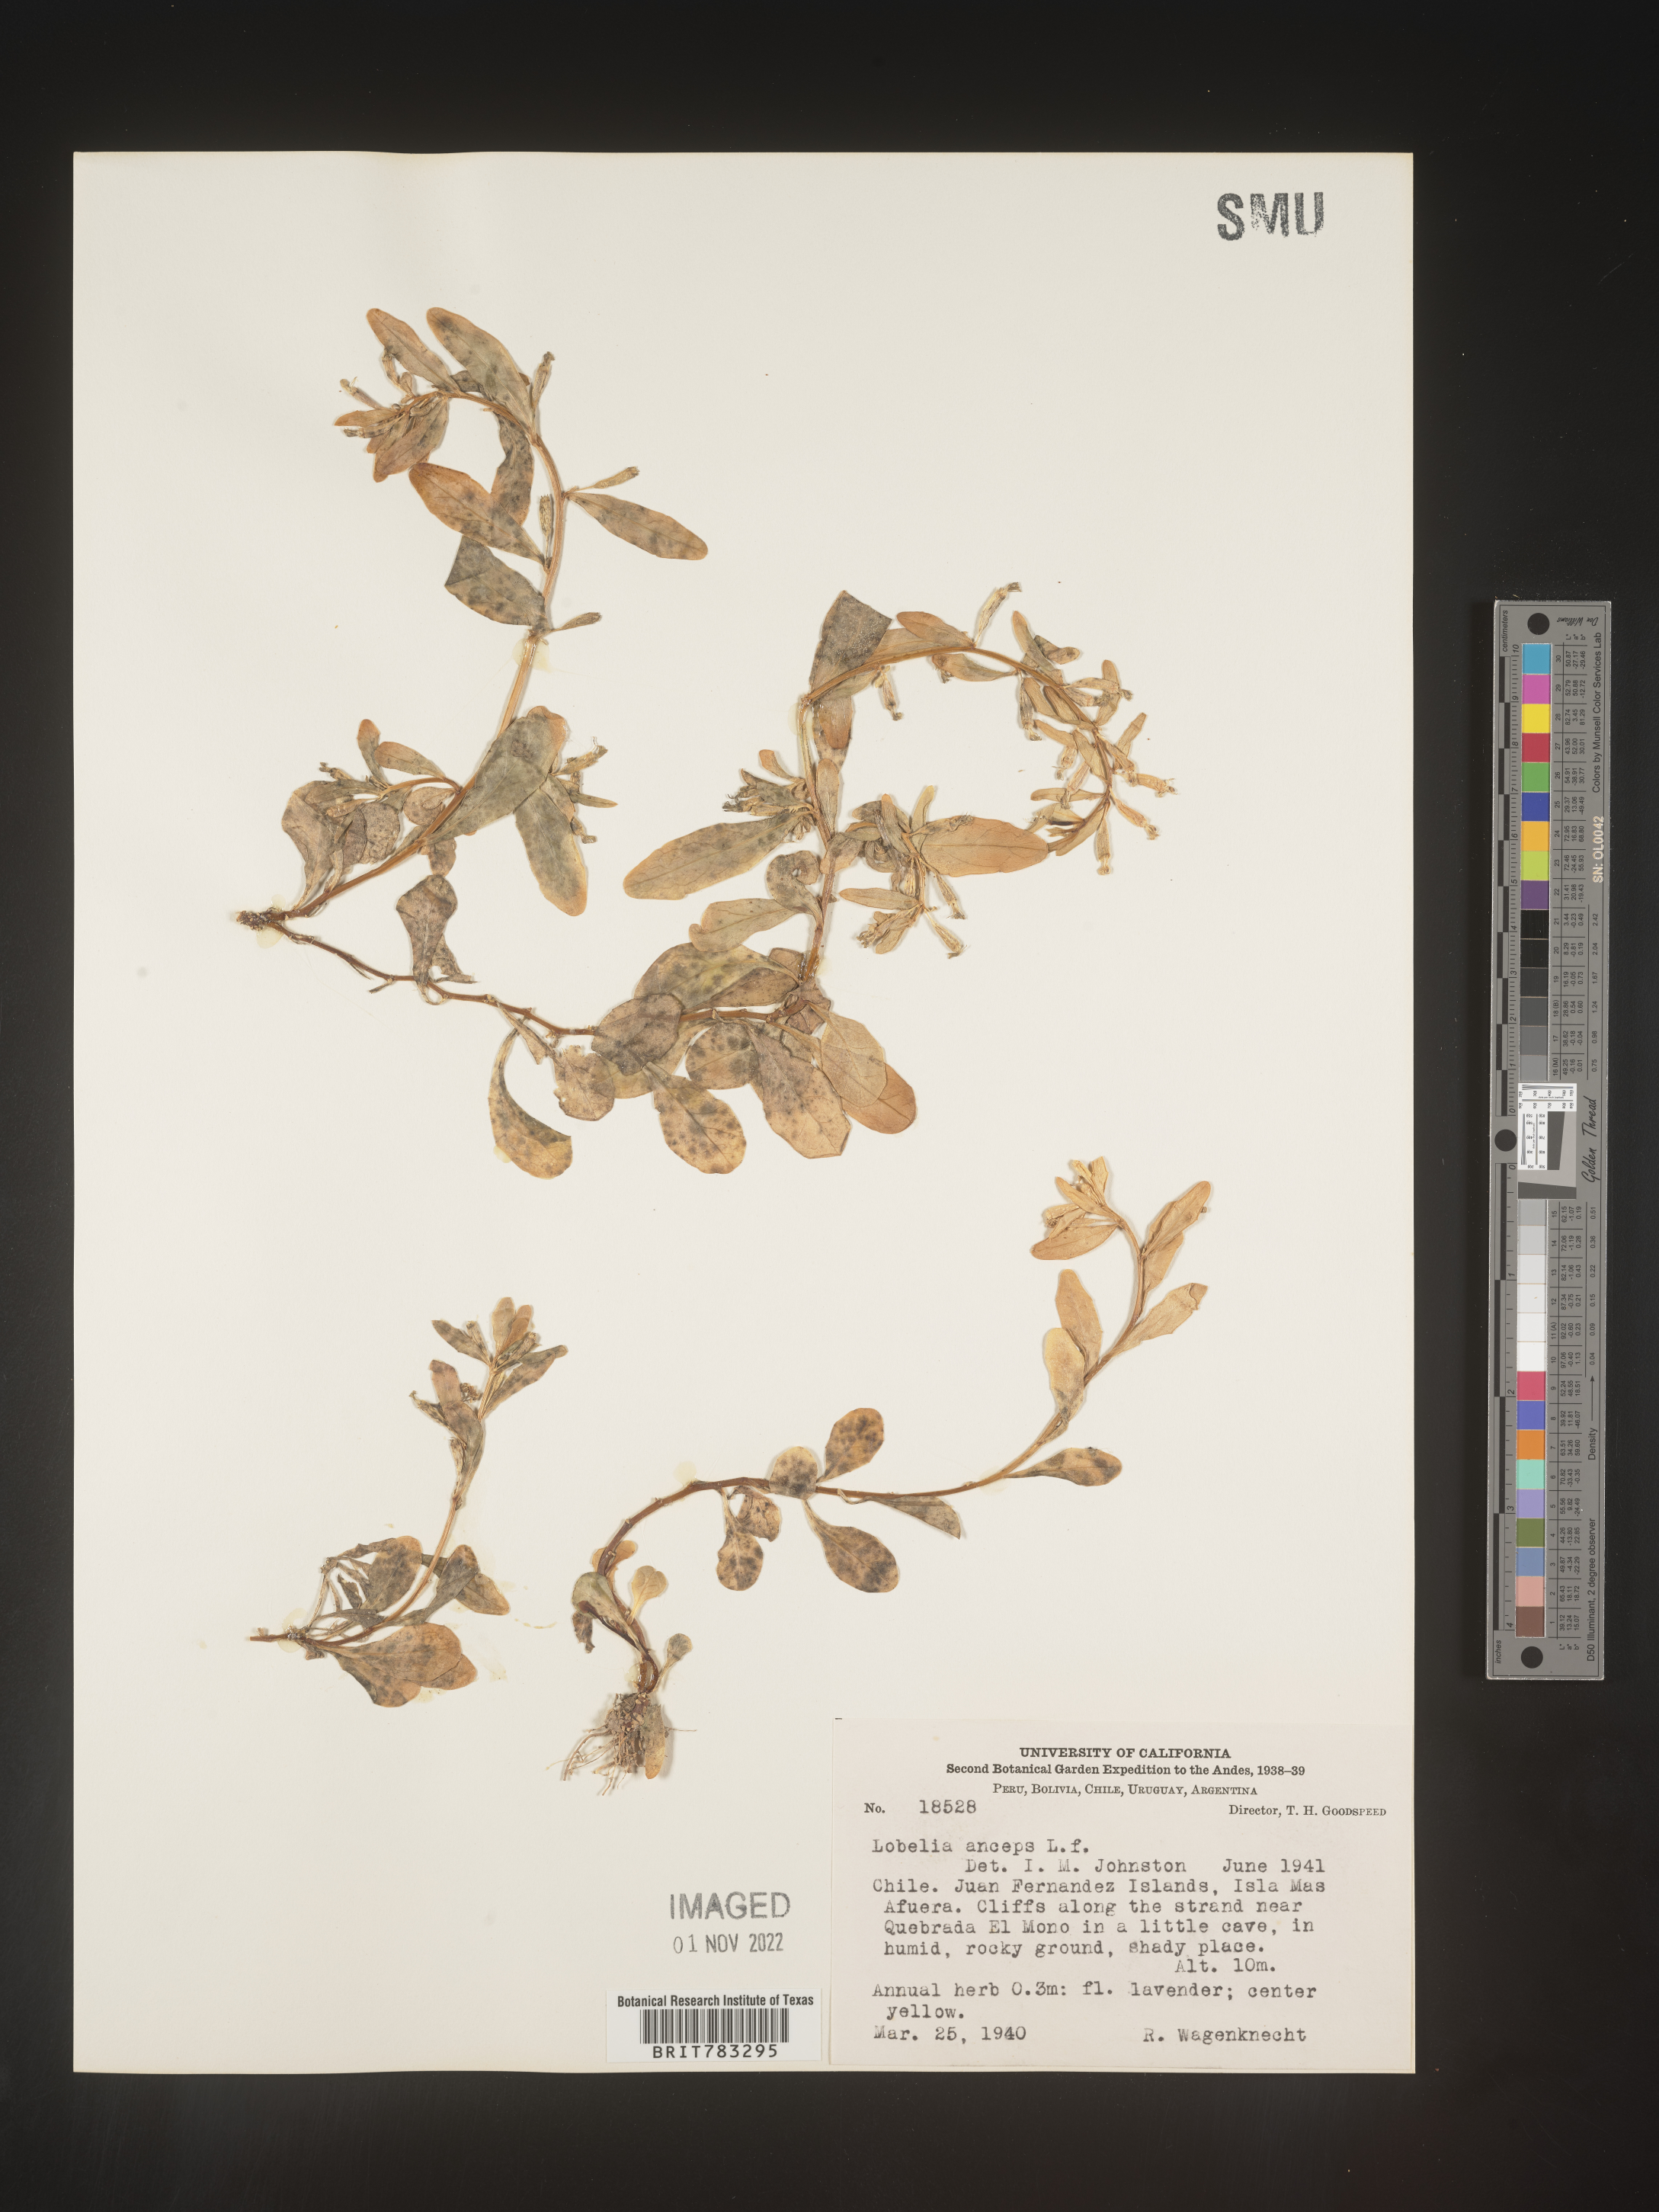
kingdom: Plantae
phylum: Tracheophyta
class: Magnoliopsida
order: Asterales
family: Campanulaceae
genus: Lobelia
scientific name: Lobelia
